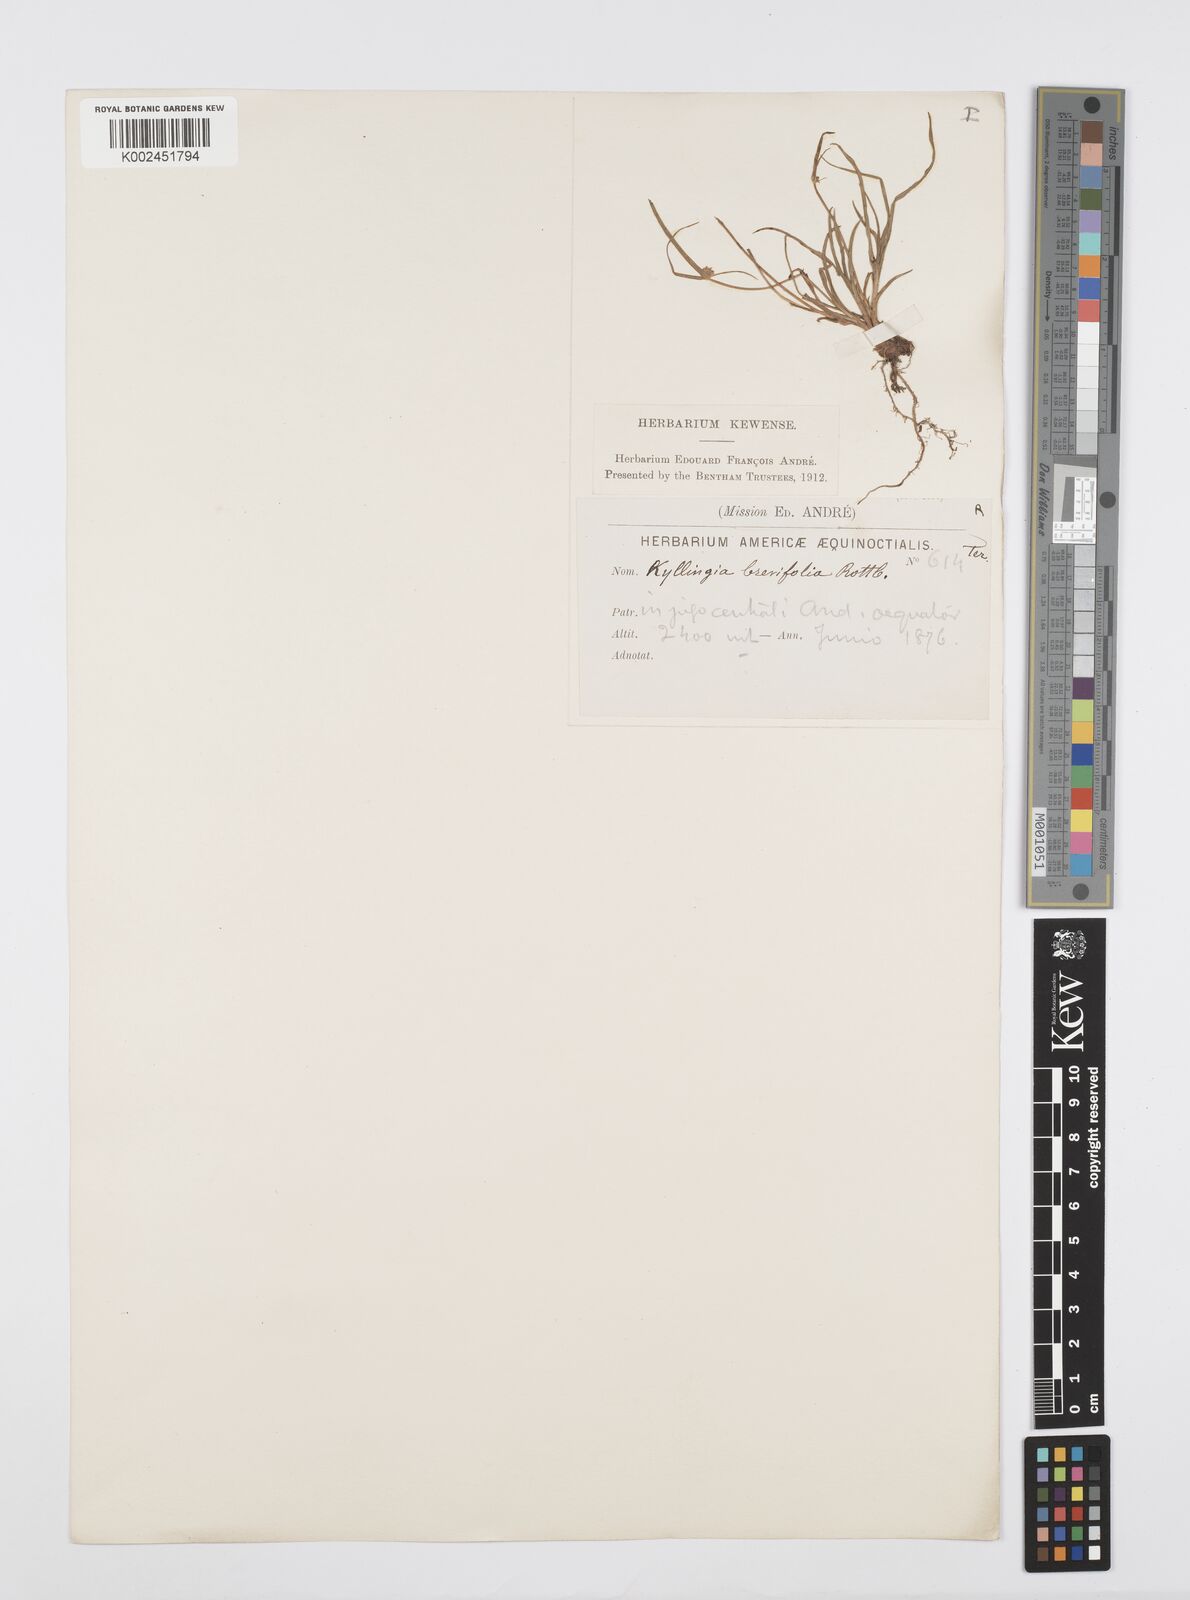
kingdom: Plantae
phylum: Tracheophyta
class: Liliopsida
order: Poales
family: Cyperaceae
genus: Cyperus
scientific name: Cyperus brevifolius
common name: Globe kyllinga
